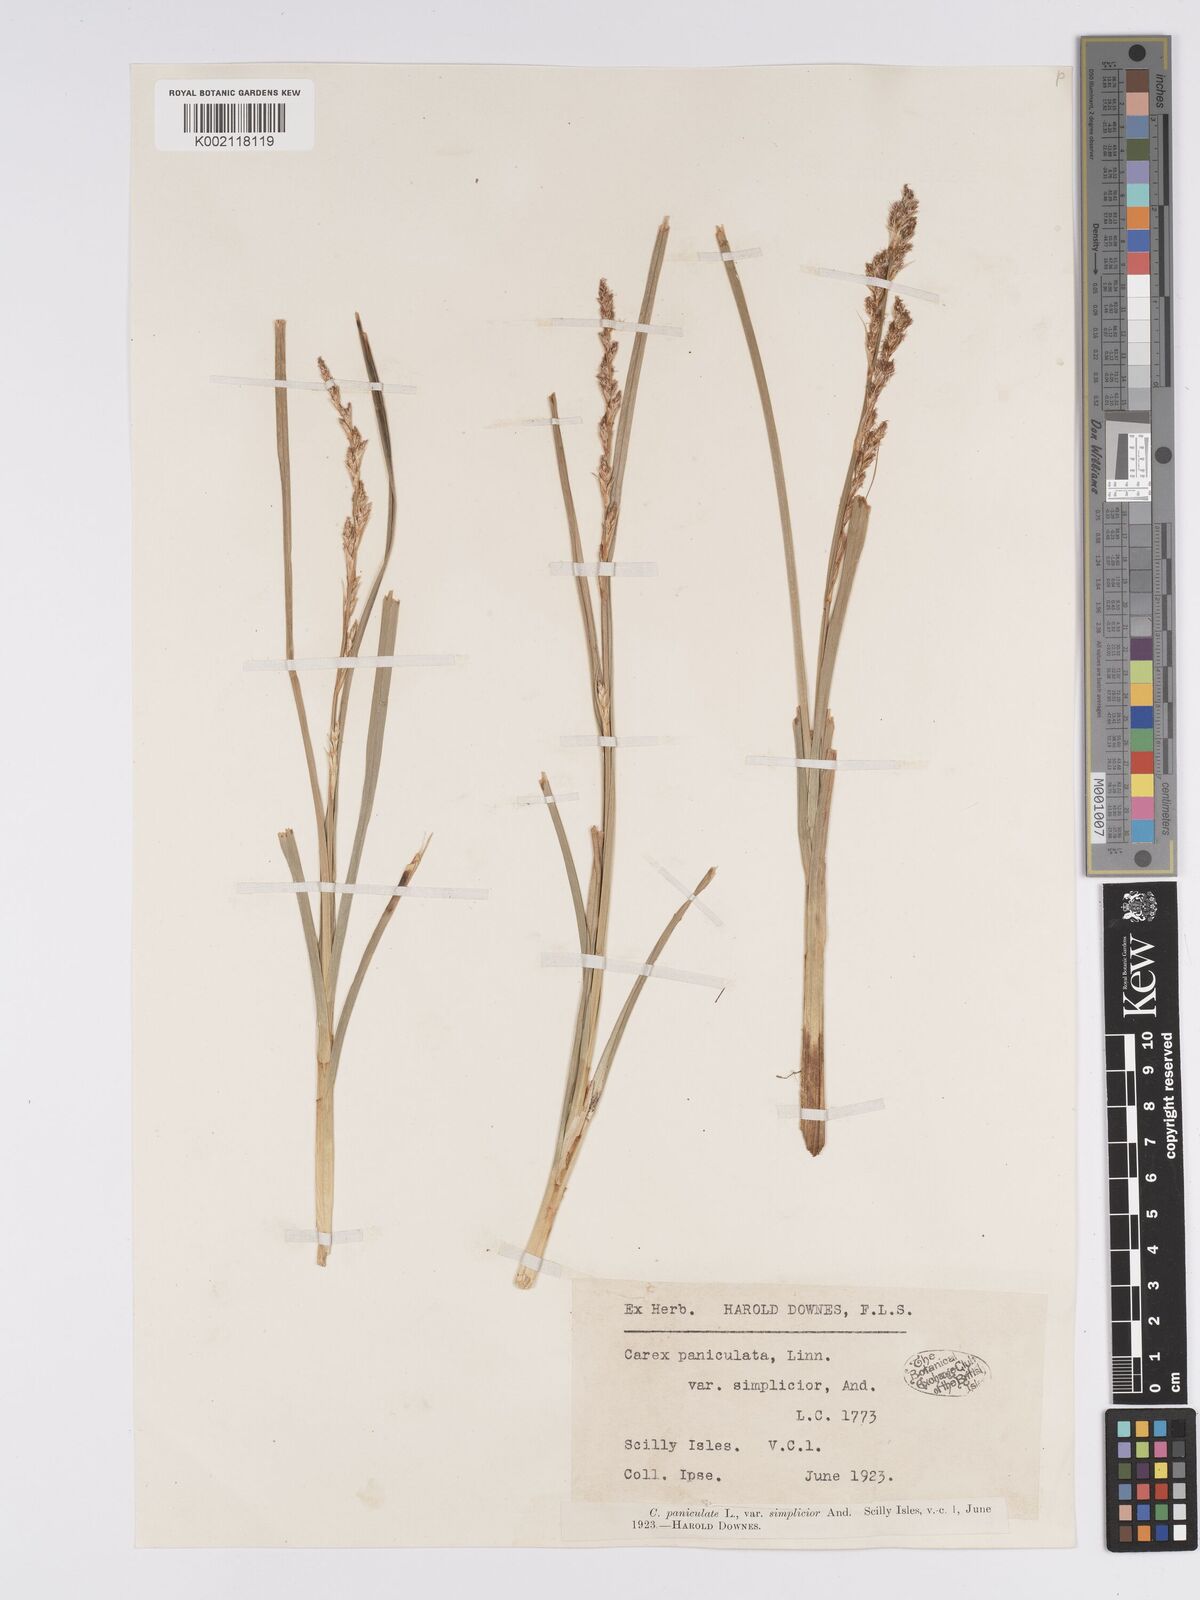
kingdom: Plantae
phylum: Tracheophyta
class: Liliopsida
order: Poales
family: Cyperaceae
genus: Carex
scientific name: Carex paniculata
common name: Greater tussock-sedge
